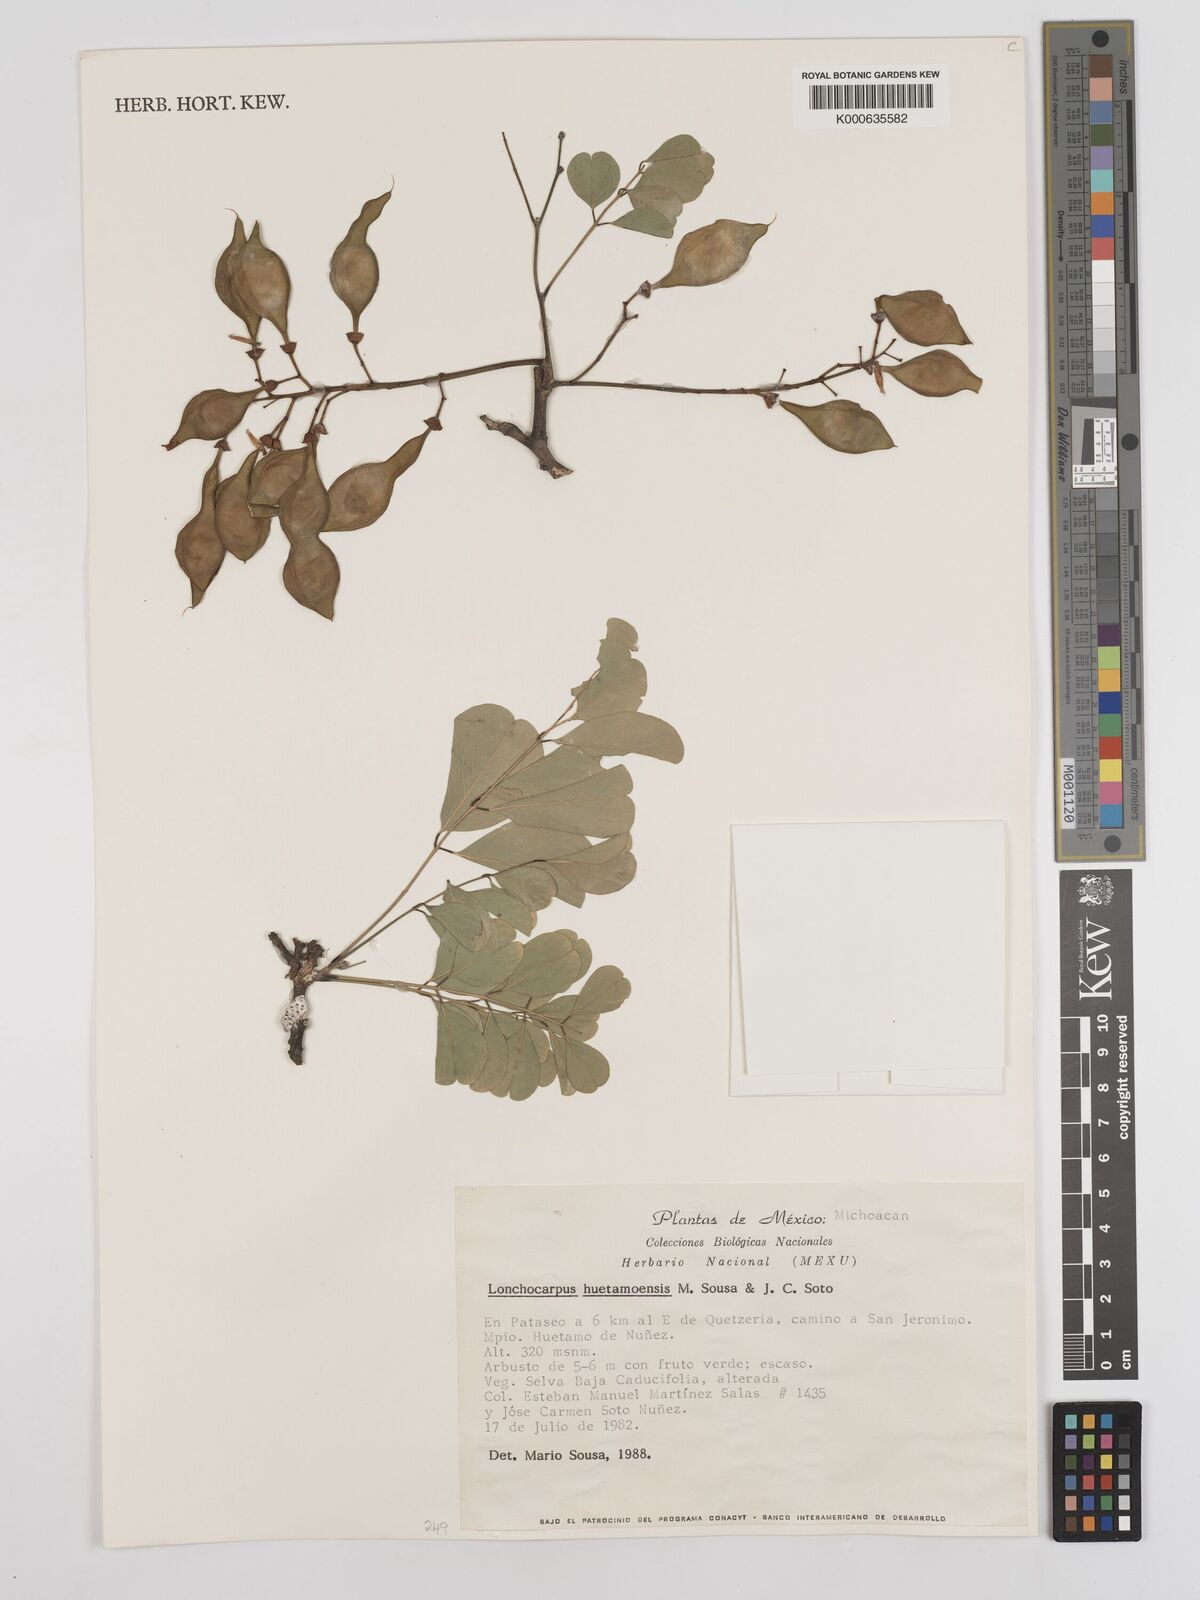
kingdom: Plantae
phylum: Tracheophyta
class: Magnoliopsida
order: Fabales
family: Fabaceae
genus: Lonchocarpus
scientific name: Lonchocarpus huetamoensis
